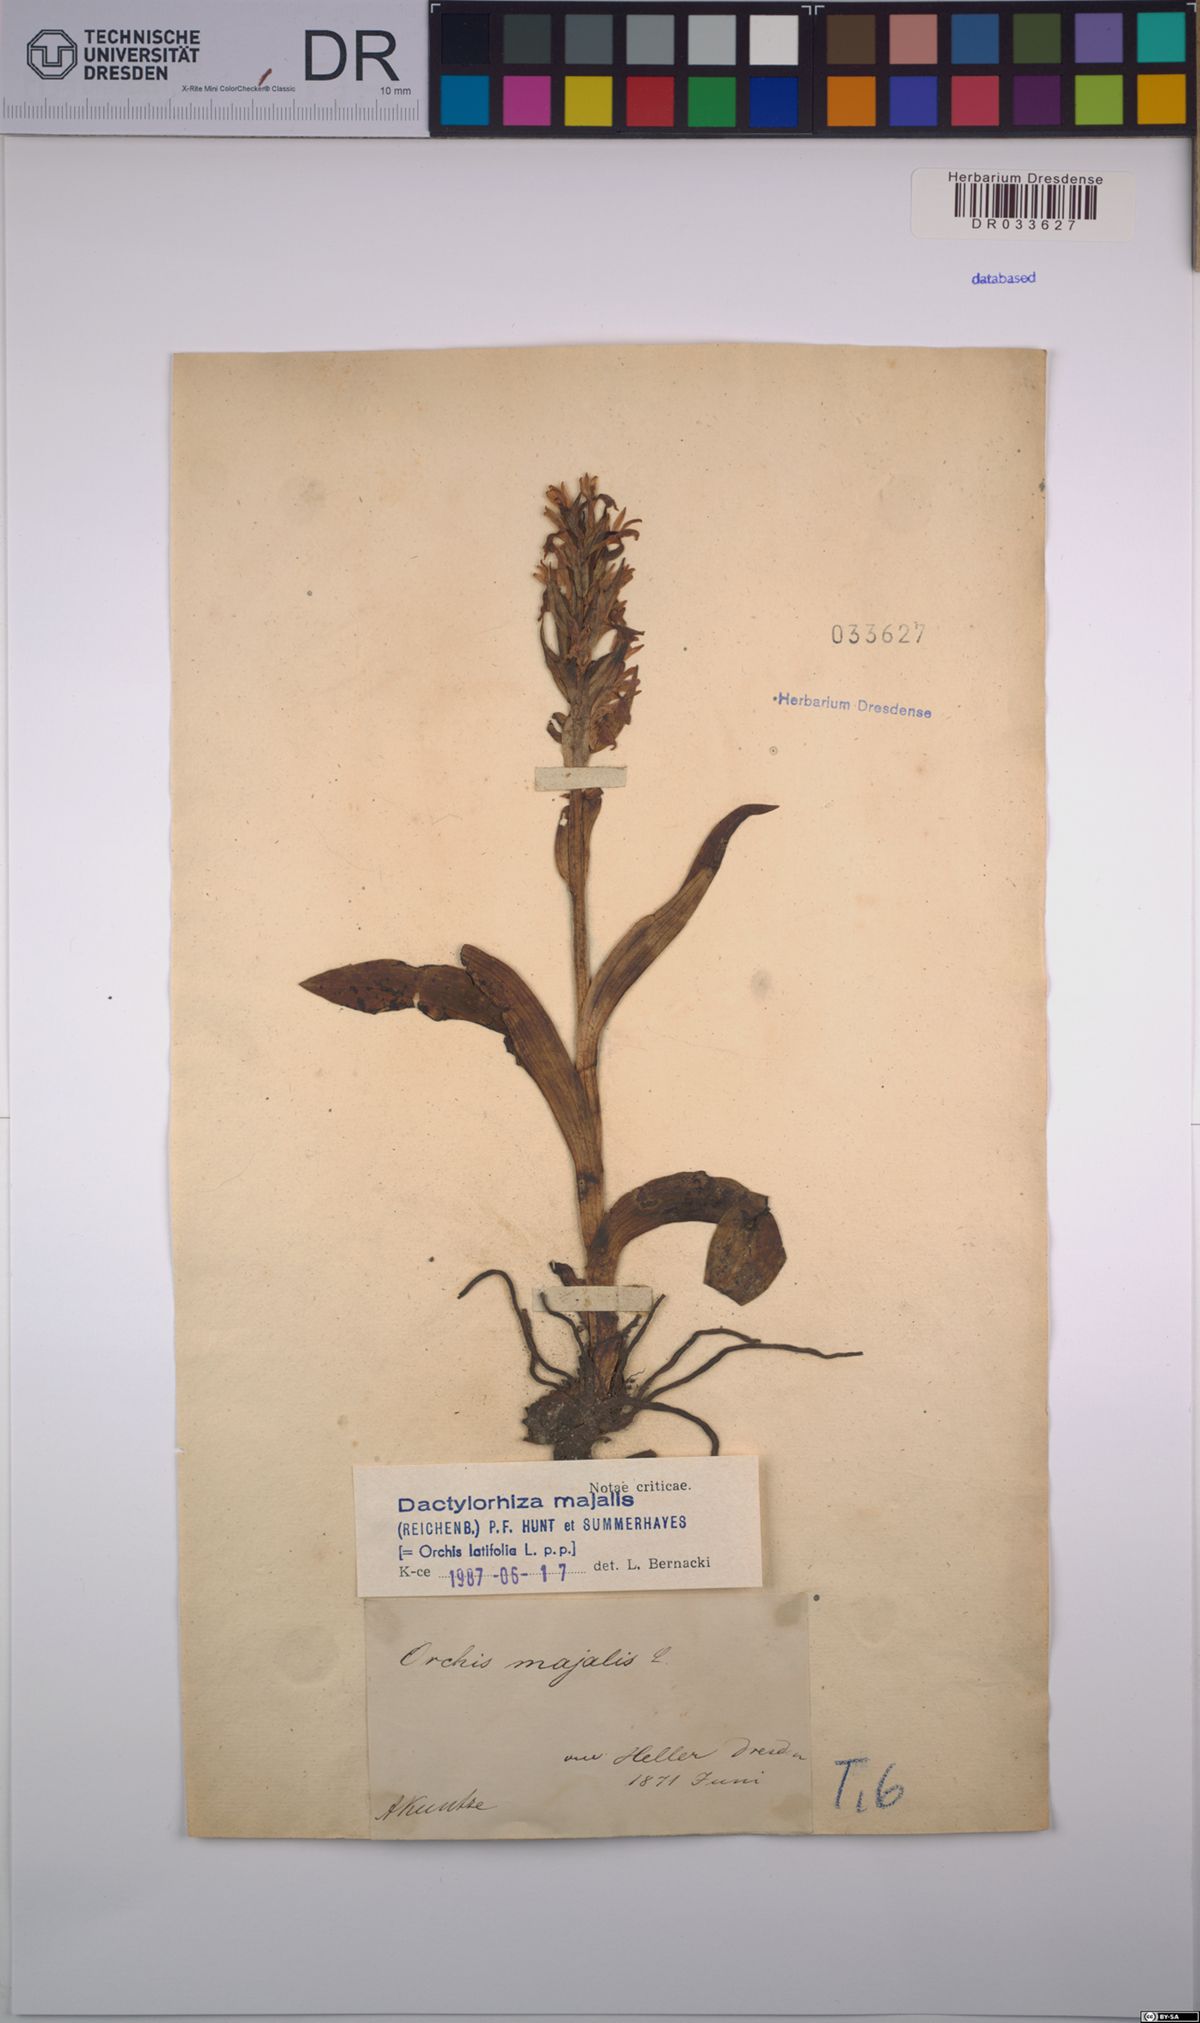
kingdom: Plantae
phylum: Tracheophyta
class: Liliopsida
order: Asparagales
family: Orchidaceae
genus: Dactylorhiza
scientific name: Dactylorhiza majalis
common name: Marsh orchid
